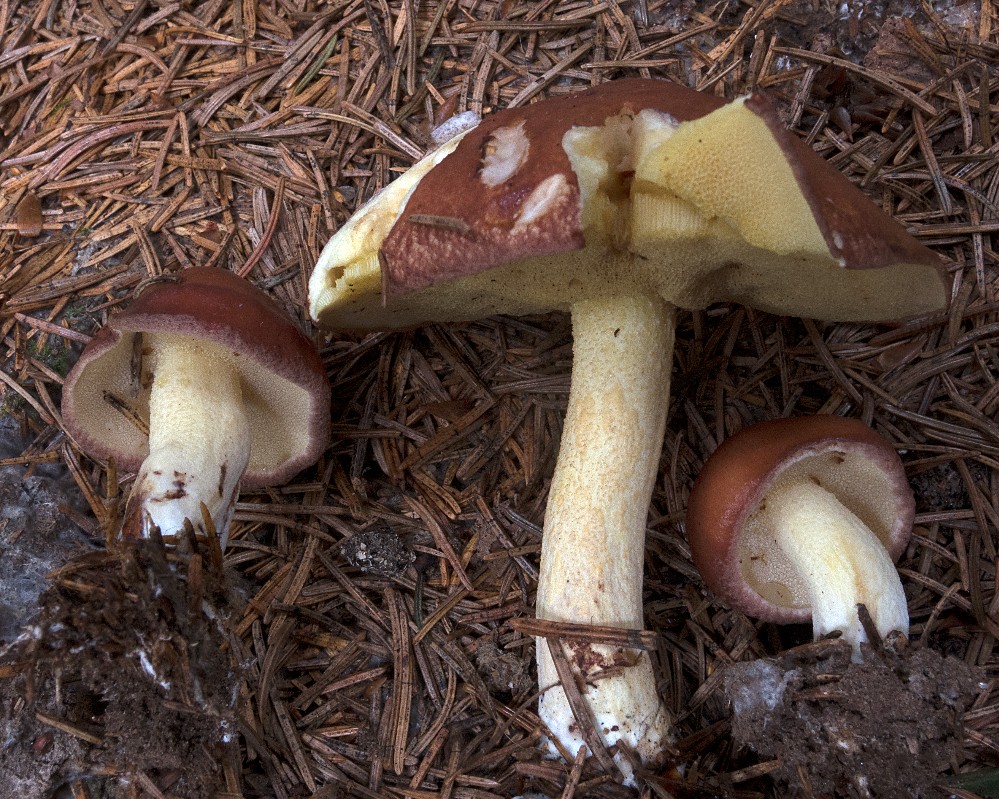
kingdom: Fungi
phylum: Basidiomycota
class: Agaricomycetes
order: Boletales
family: Suillaceae
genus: Suillus
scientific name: Suillus granulatus
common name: kornet slimrørhat
